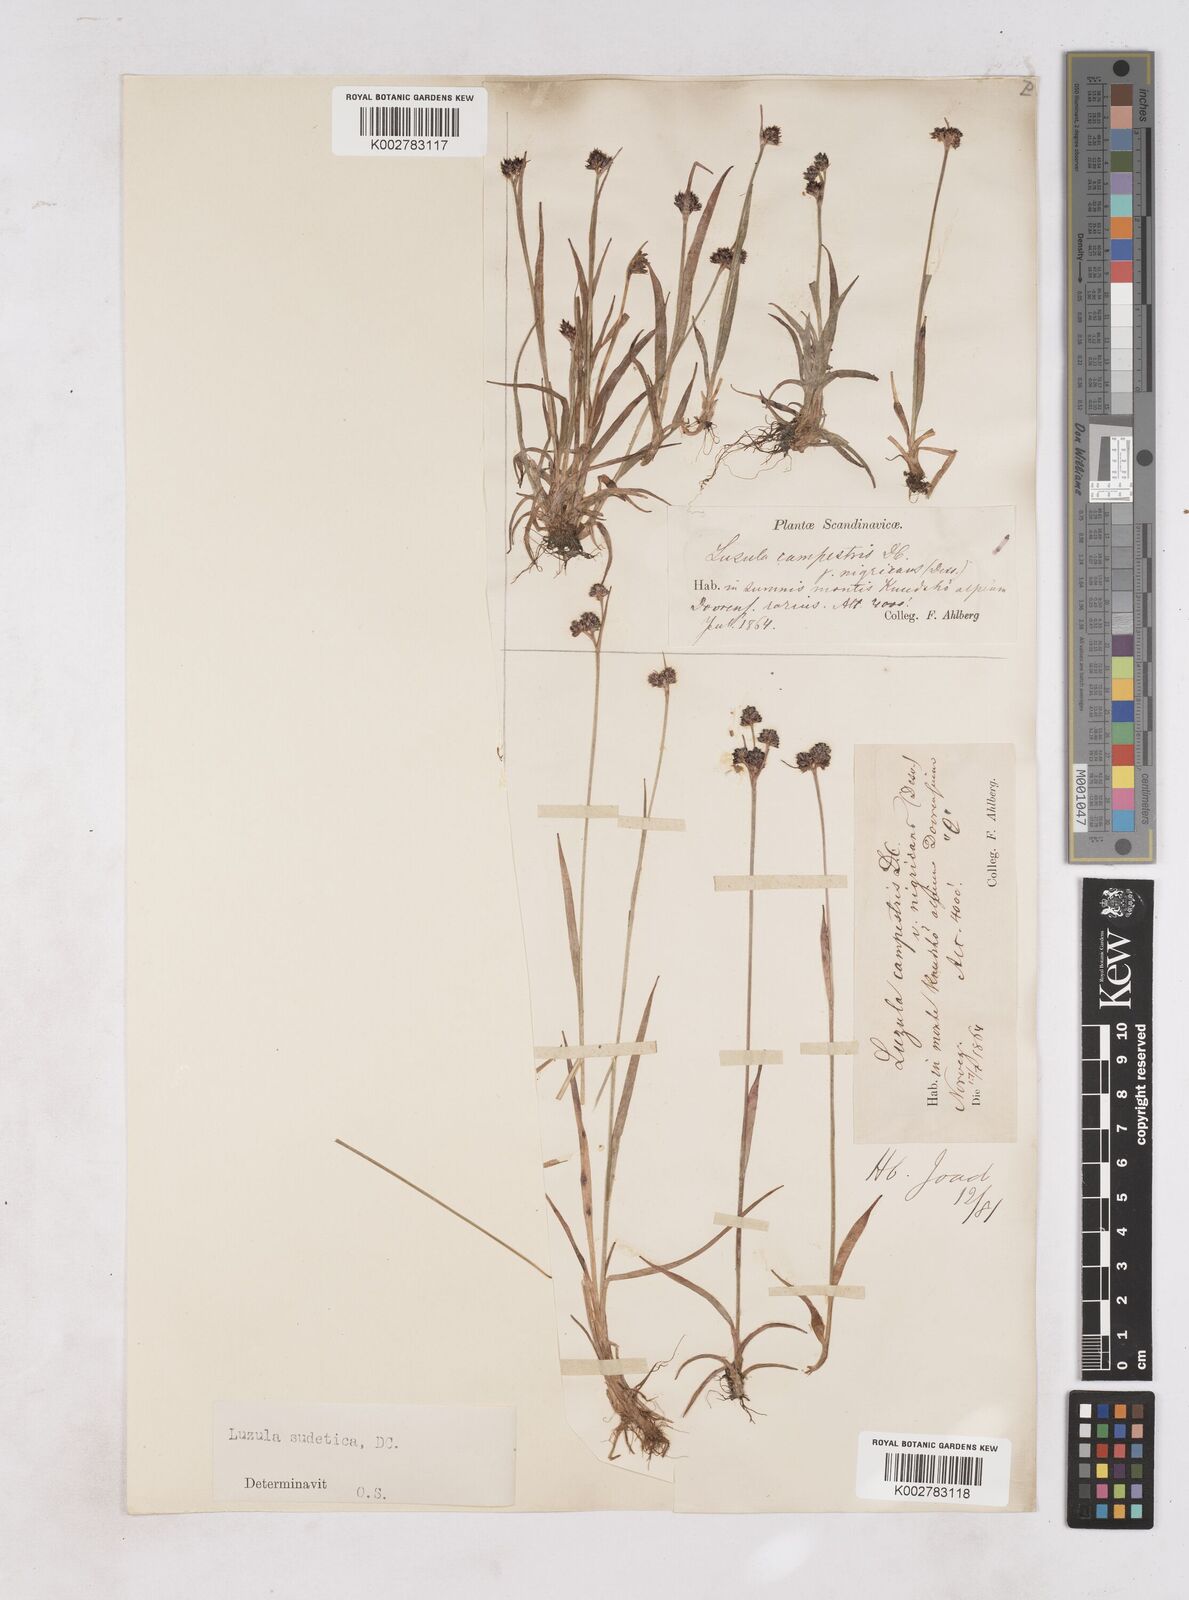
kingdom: Plantae
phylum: Tracheophyta
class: Liliopsida
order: Poales
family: Juncaceae
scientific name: Juncaceae
